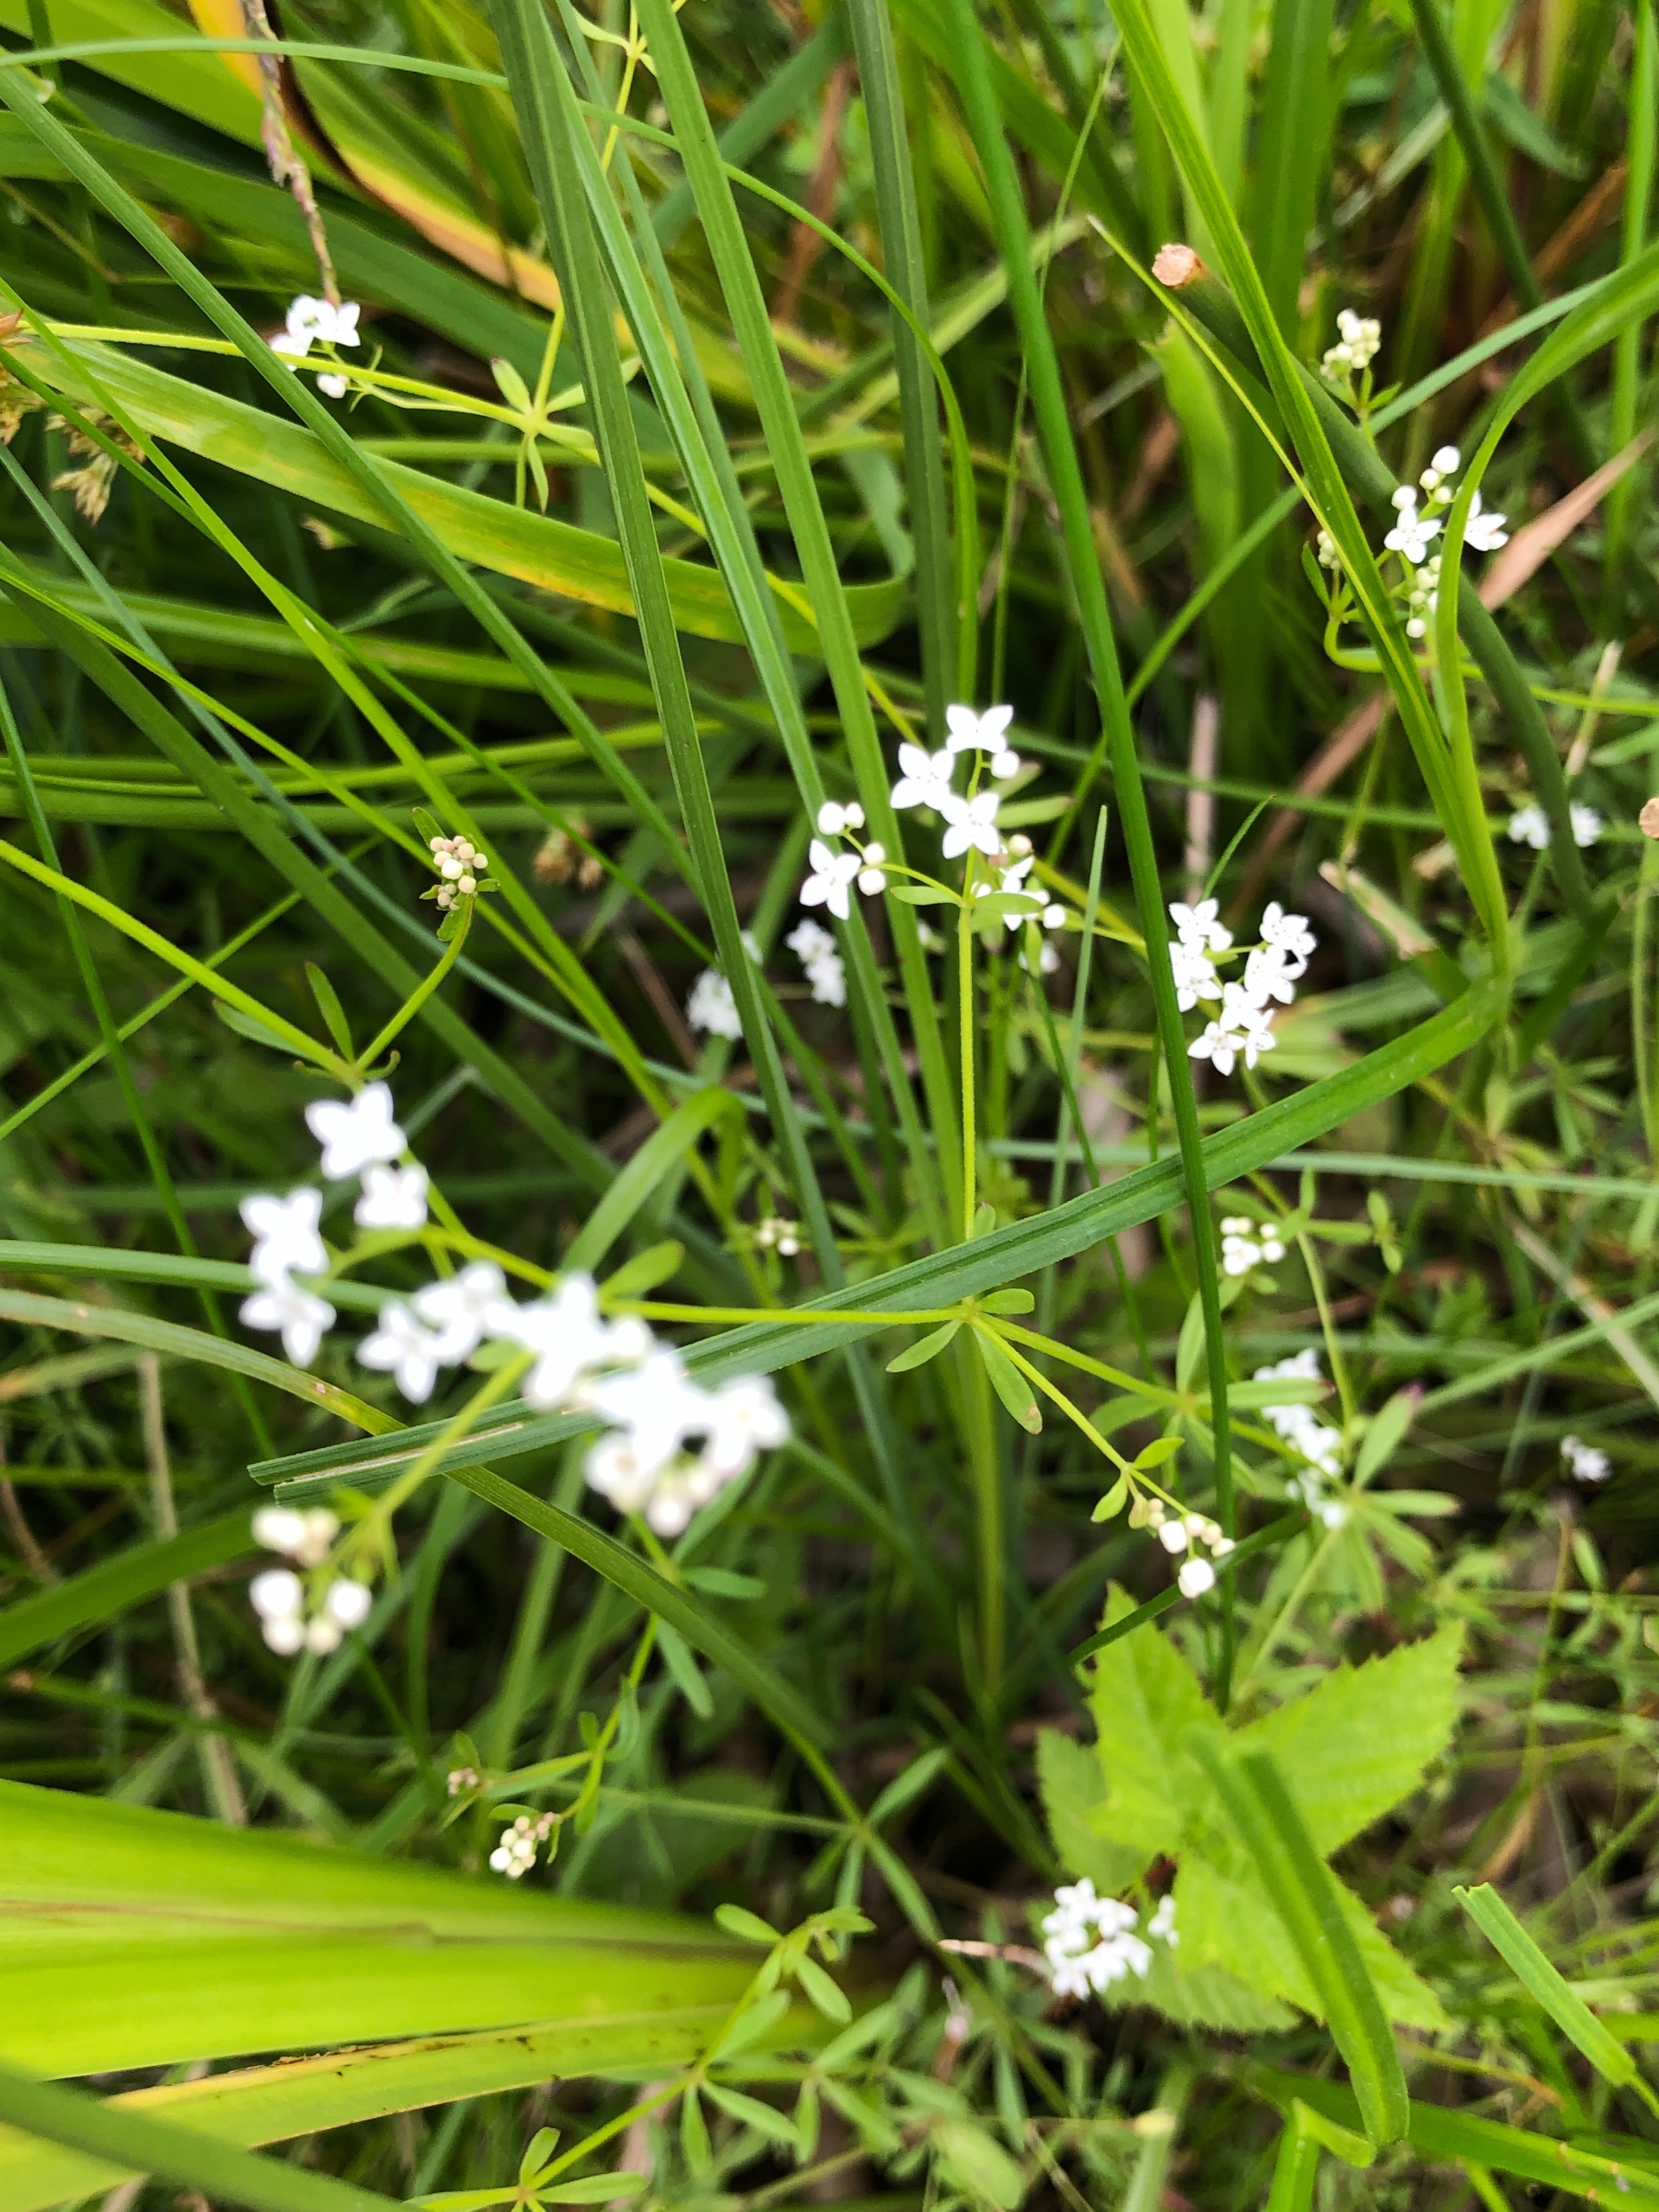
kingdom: Plantae
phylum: Tracheophyta
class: Magnoliopsida
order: Gentianales
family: Rubiaceae
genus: Galium
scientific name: Galium palustre
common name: Kær-snerre
